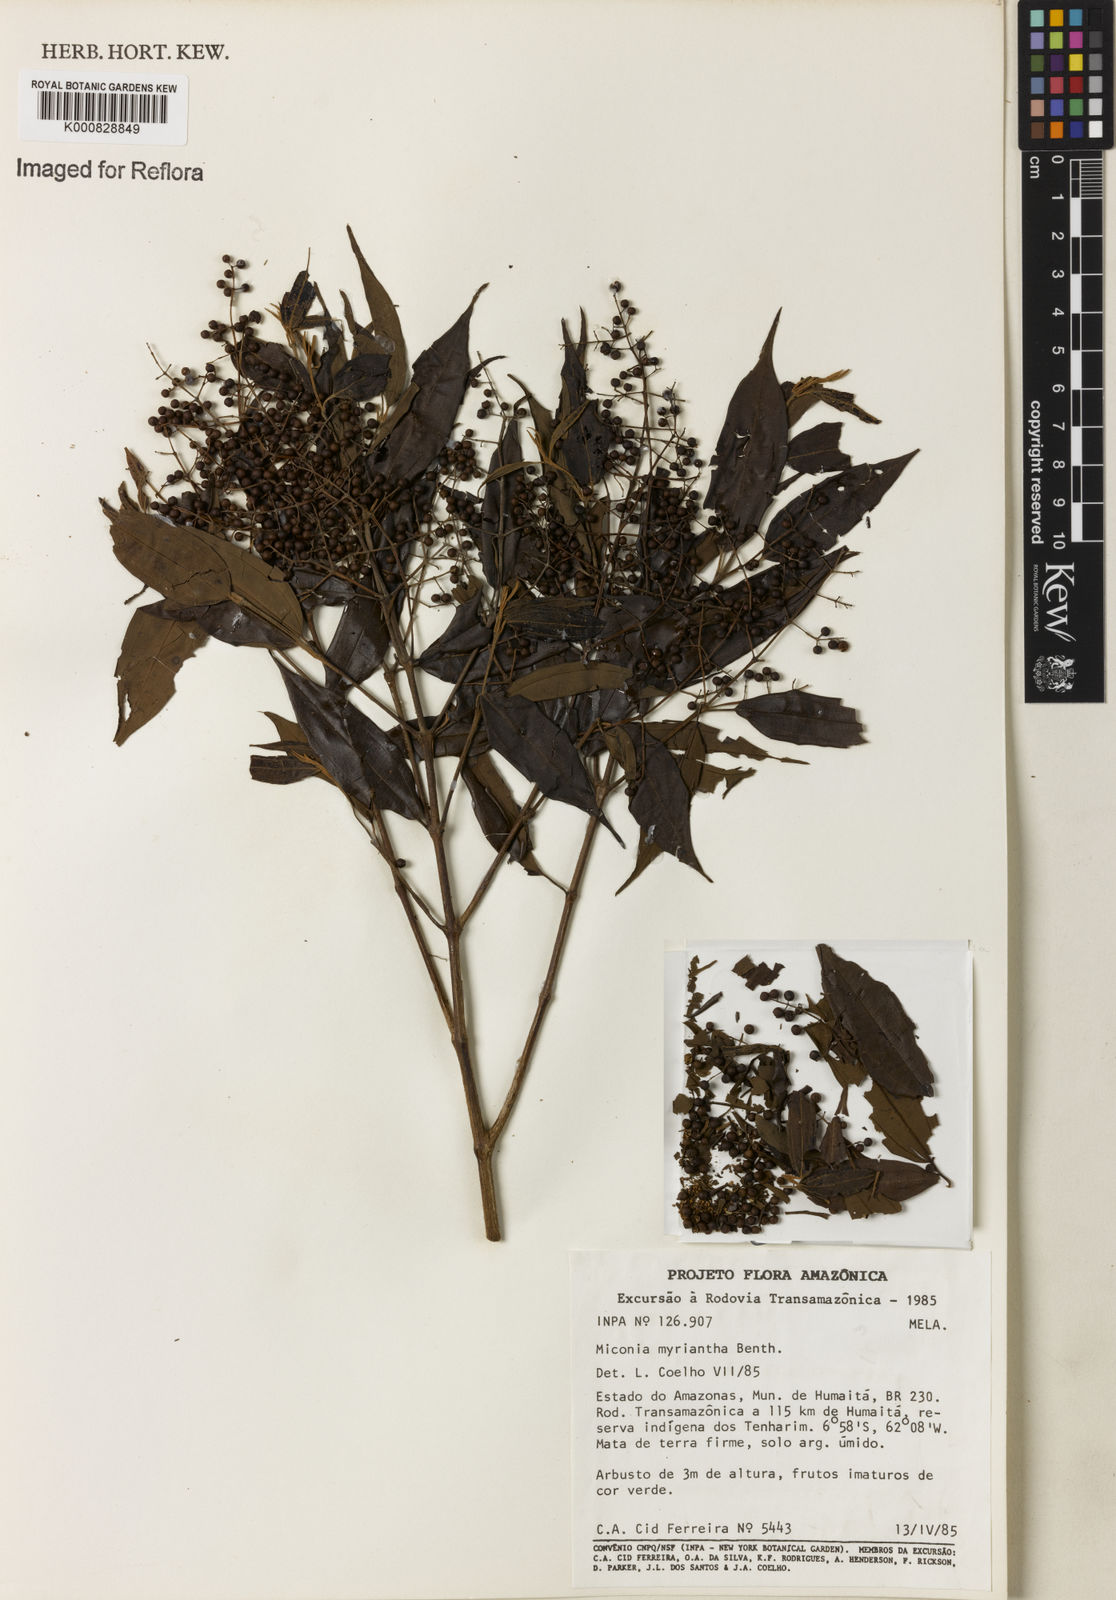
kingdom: Plantae
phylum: Tracheophyta
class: Magnoliopsida
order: Myrtales
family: Melastomataceae
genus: Miconia
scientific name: Miconia myriantha
